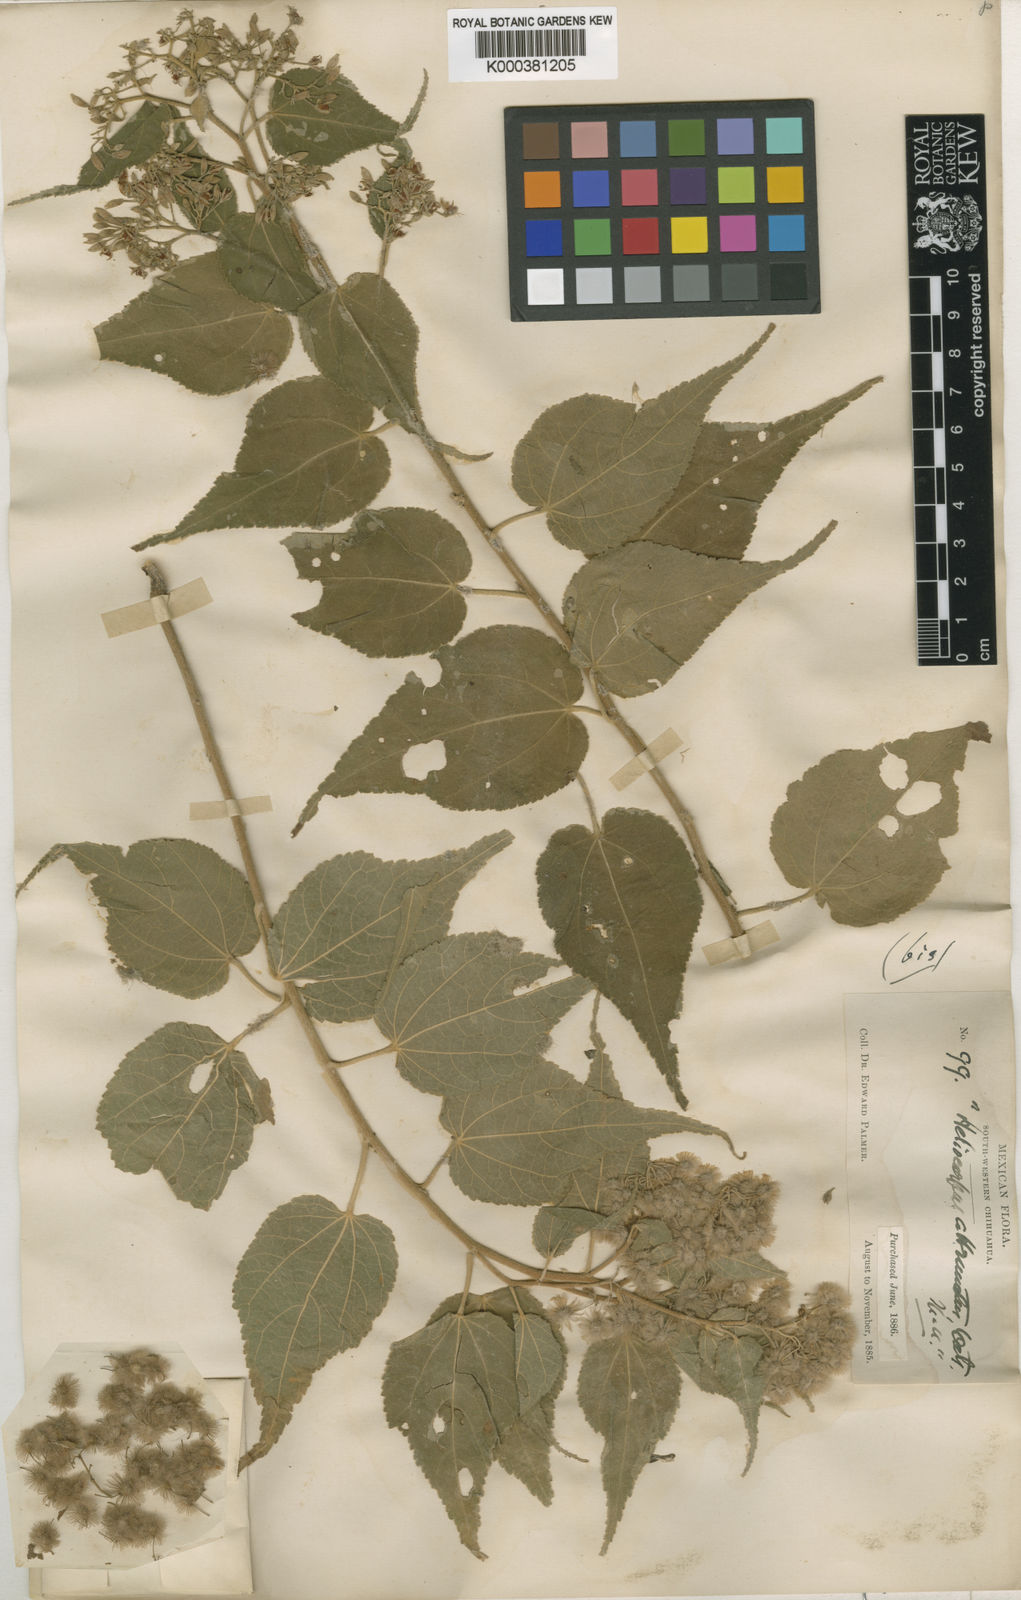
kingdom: Plantae
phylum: Tracheophyta
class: Magnoliopsida
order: Malvales
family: Malvaceae
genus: Heliocarpus
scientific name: Heliocarpus attenuatus
